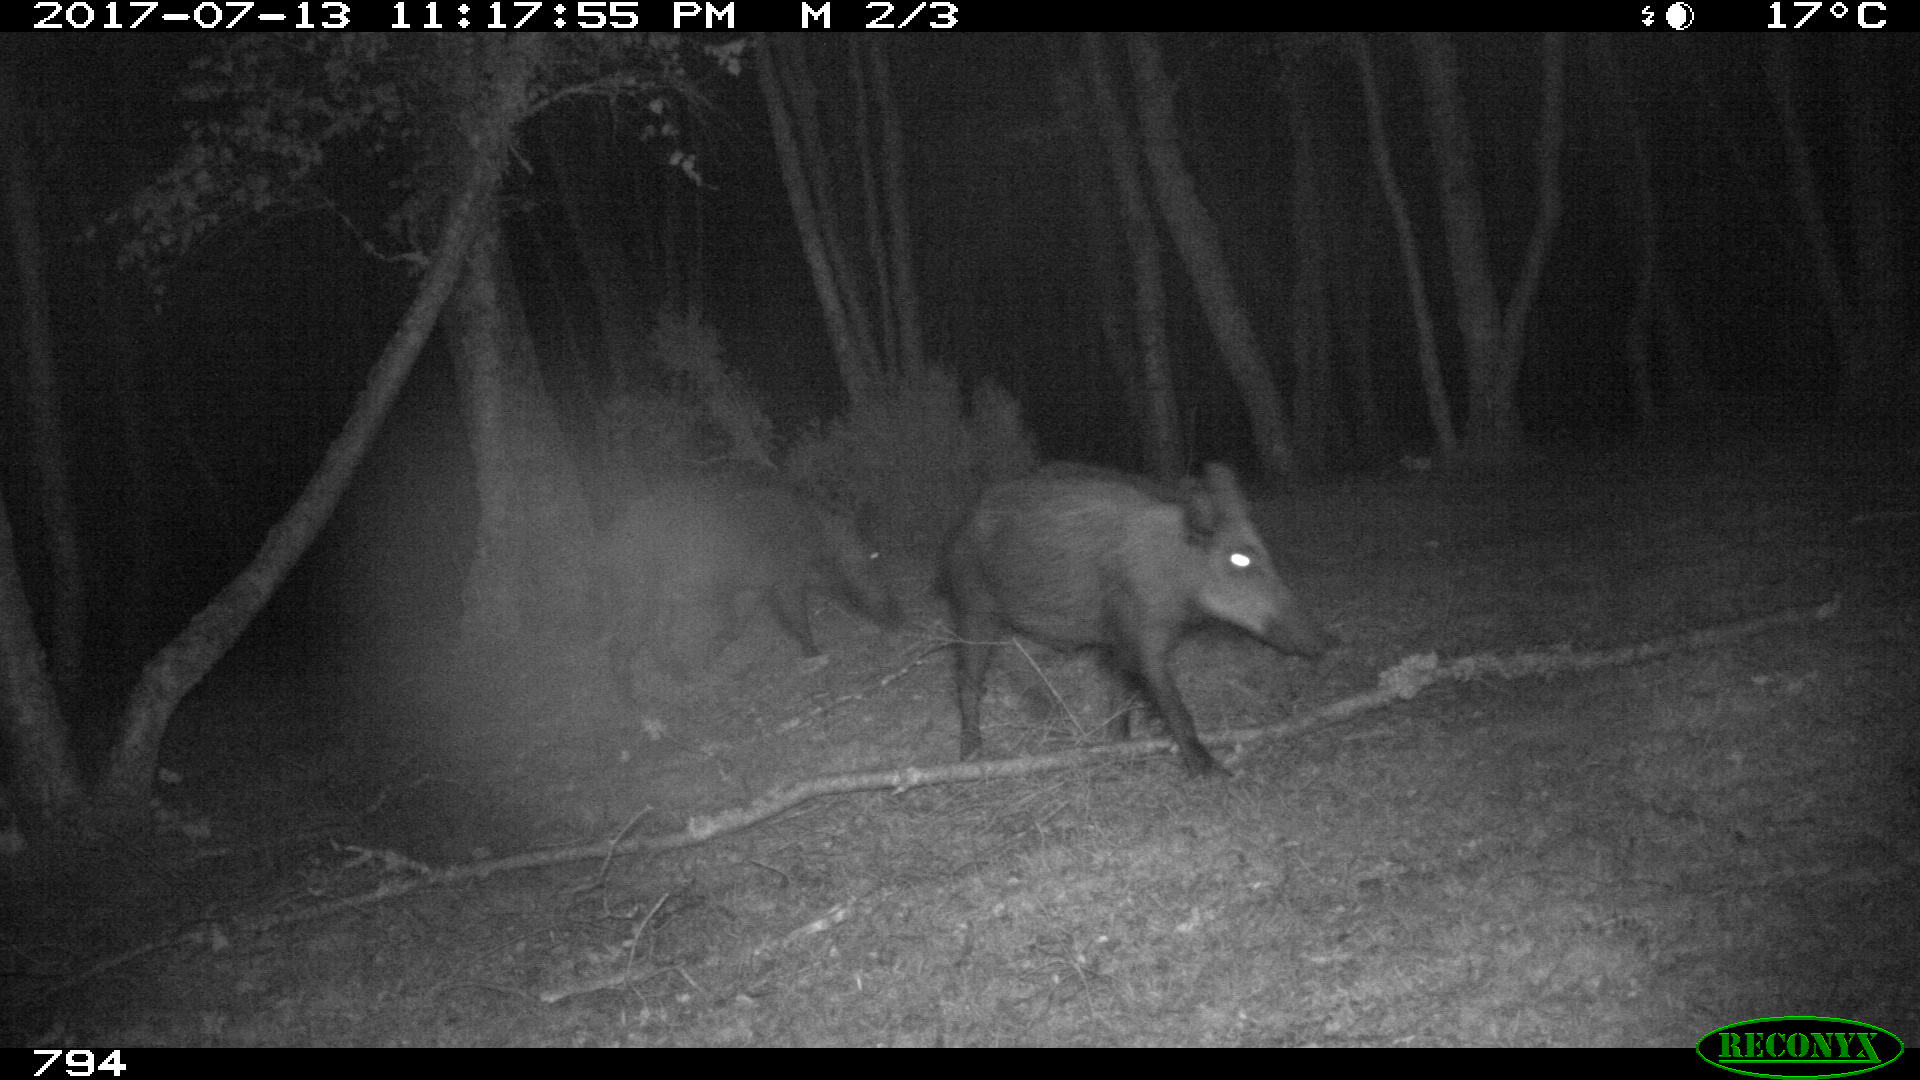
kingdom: Animalia
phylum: Chordata
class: Mammalia
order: Artiodactyla
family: Suidae
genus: Sus
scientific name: Sus scrofa
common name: Wild boar
